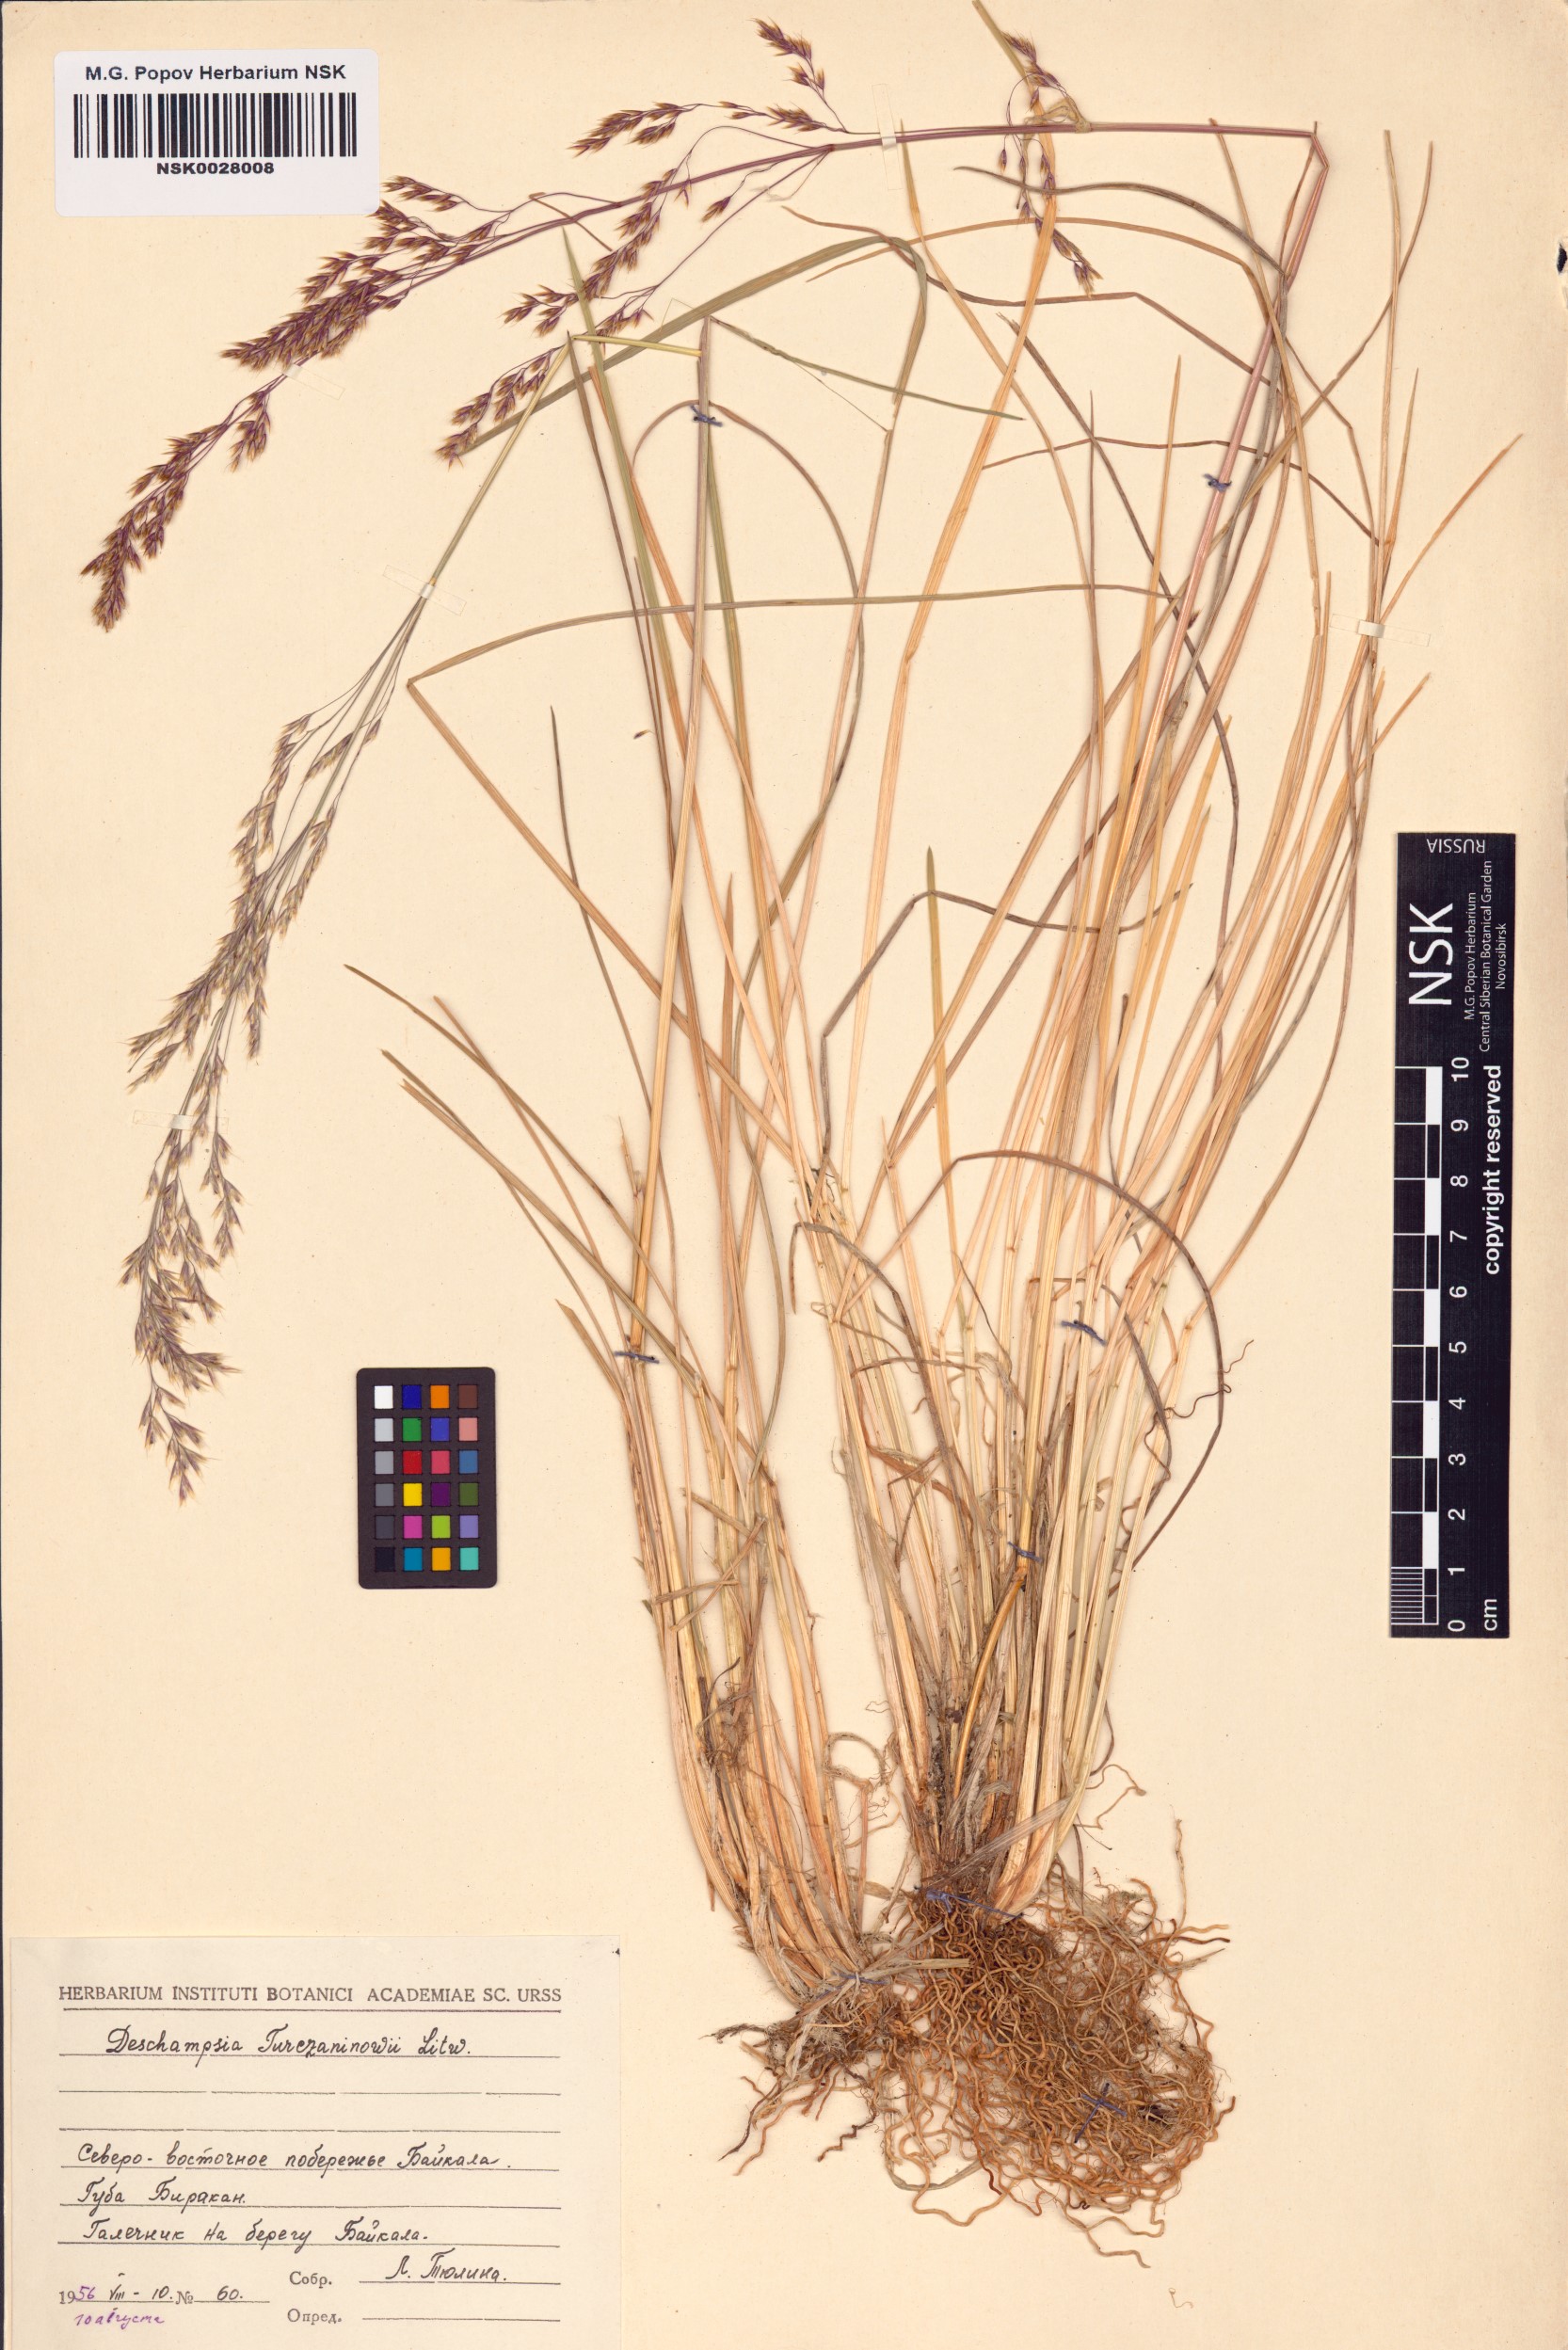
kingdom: Plantae
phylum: Tracheophyta
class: Liliopsida
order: Poales
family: Poaceae
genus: Deschampsia
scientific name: Deschampsia cespitosa
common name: Tufted hair-grass
